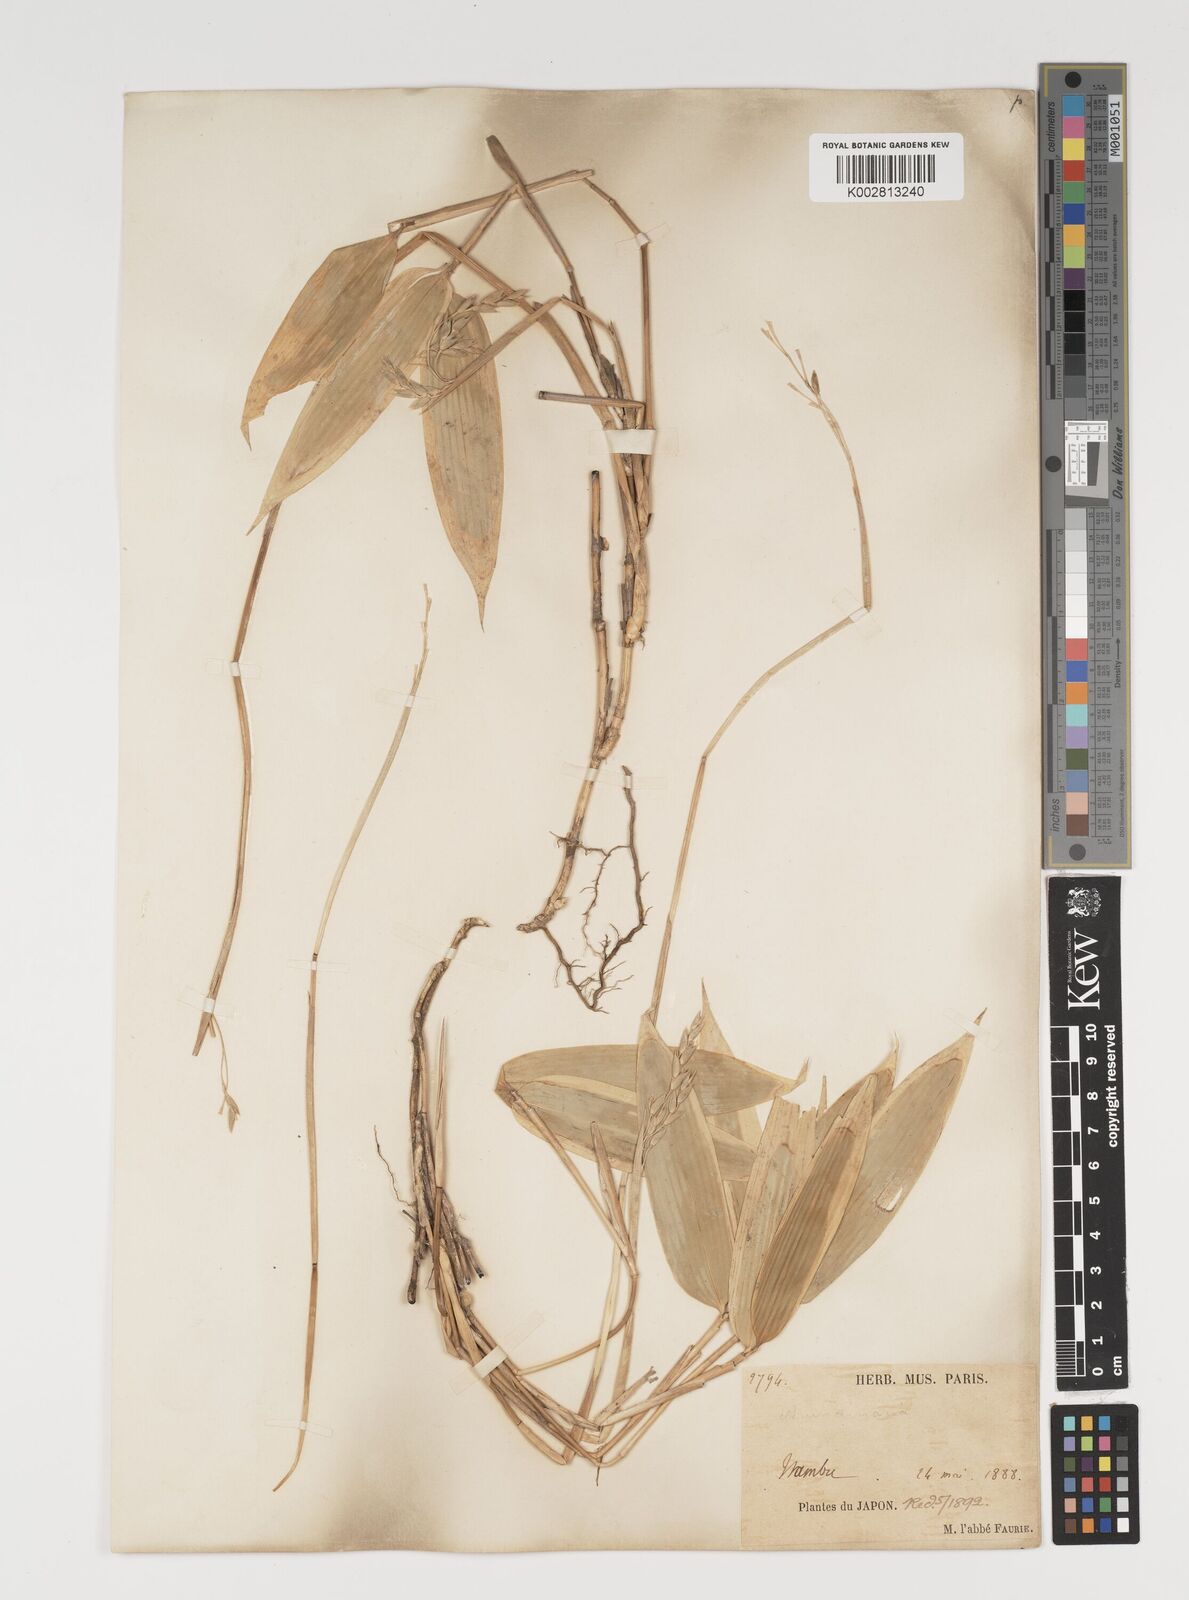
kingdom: Plantae
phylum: Tracheophyta
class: Liliopsida
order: Poales
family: Poaceae
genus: Sasa
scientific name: Sasa veitchii
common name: Veitch's bamboo
